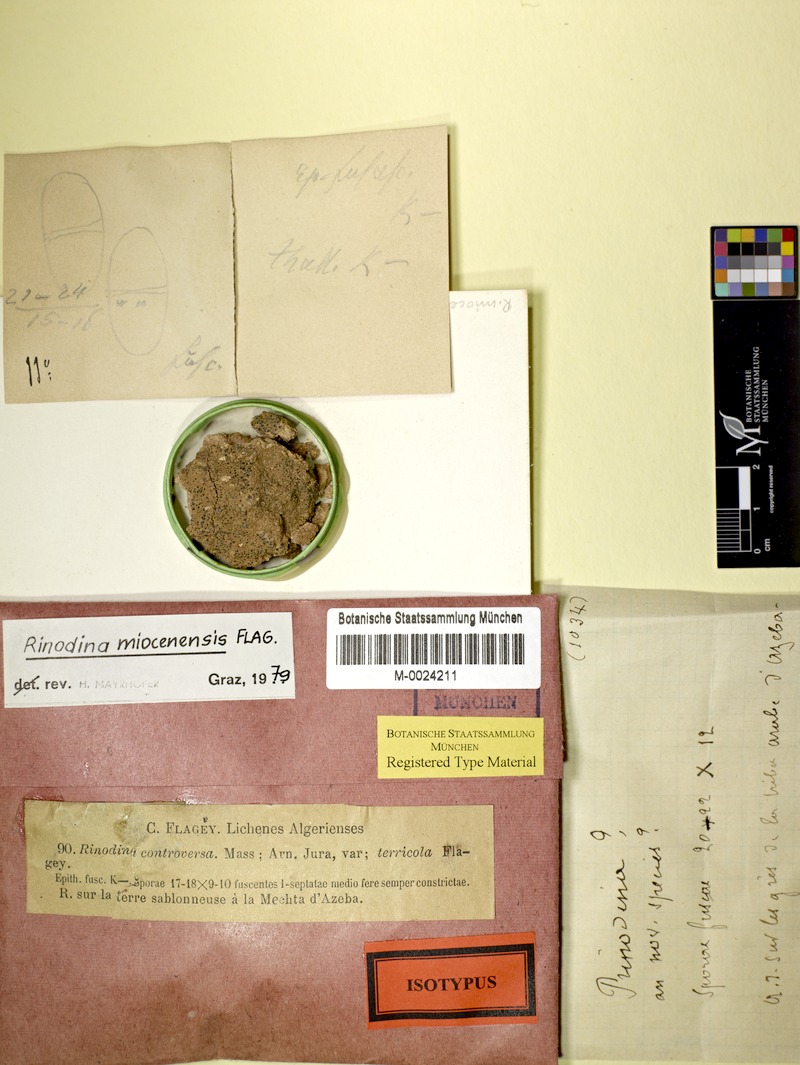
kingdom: Fungi
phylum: Ascomycota
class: Lecanoromycetes
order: Caliciales
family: Physciaceae
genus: Rinodina
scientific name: Rinodina guzzinii
